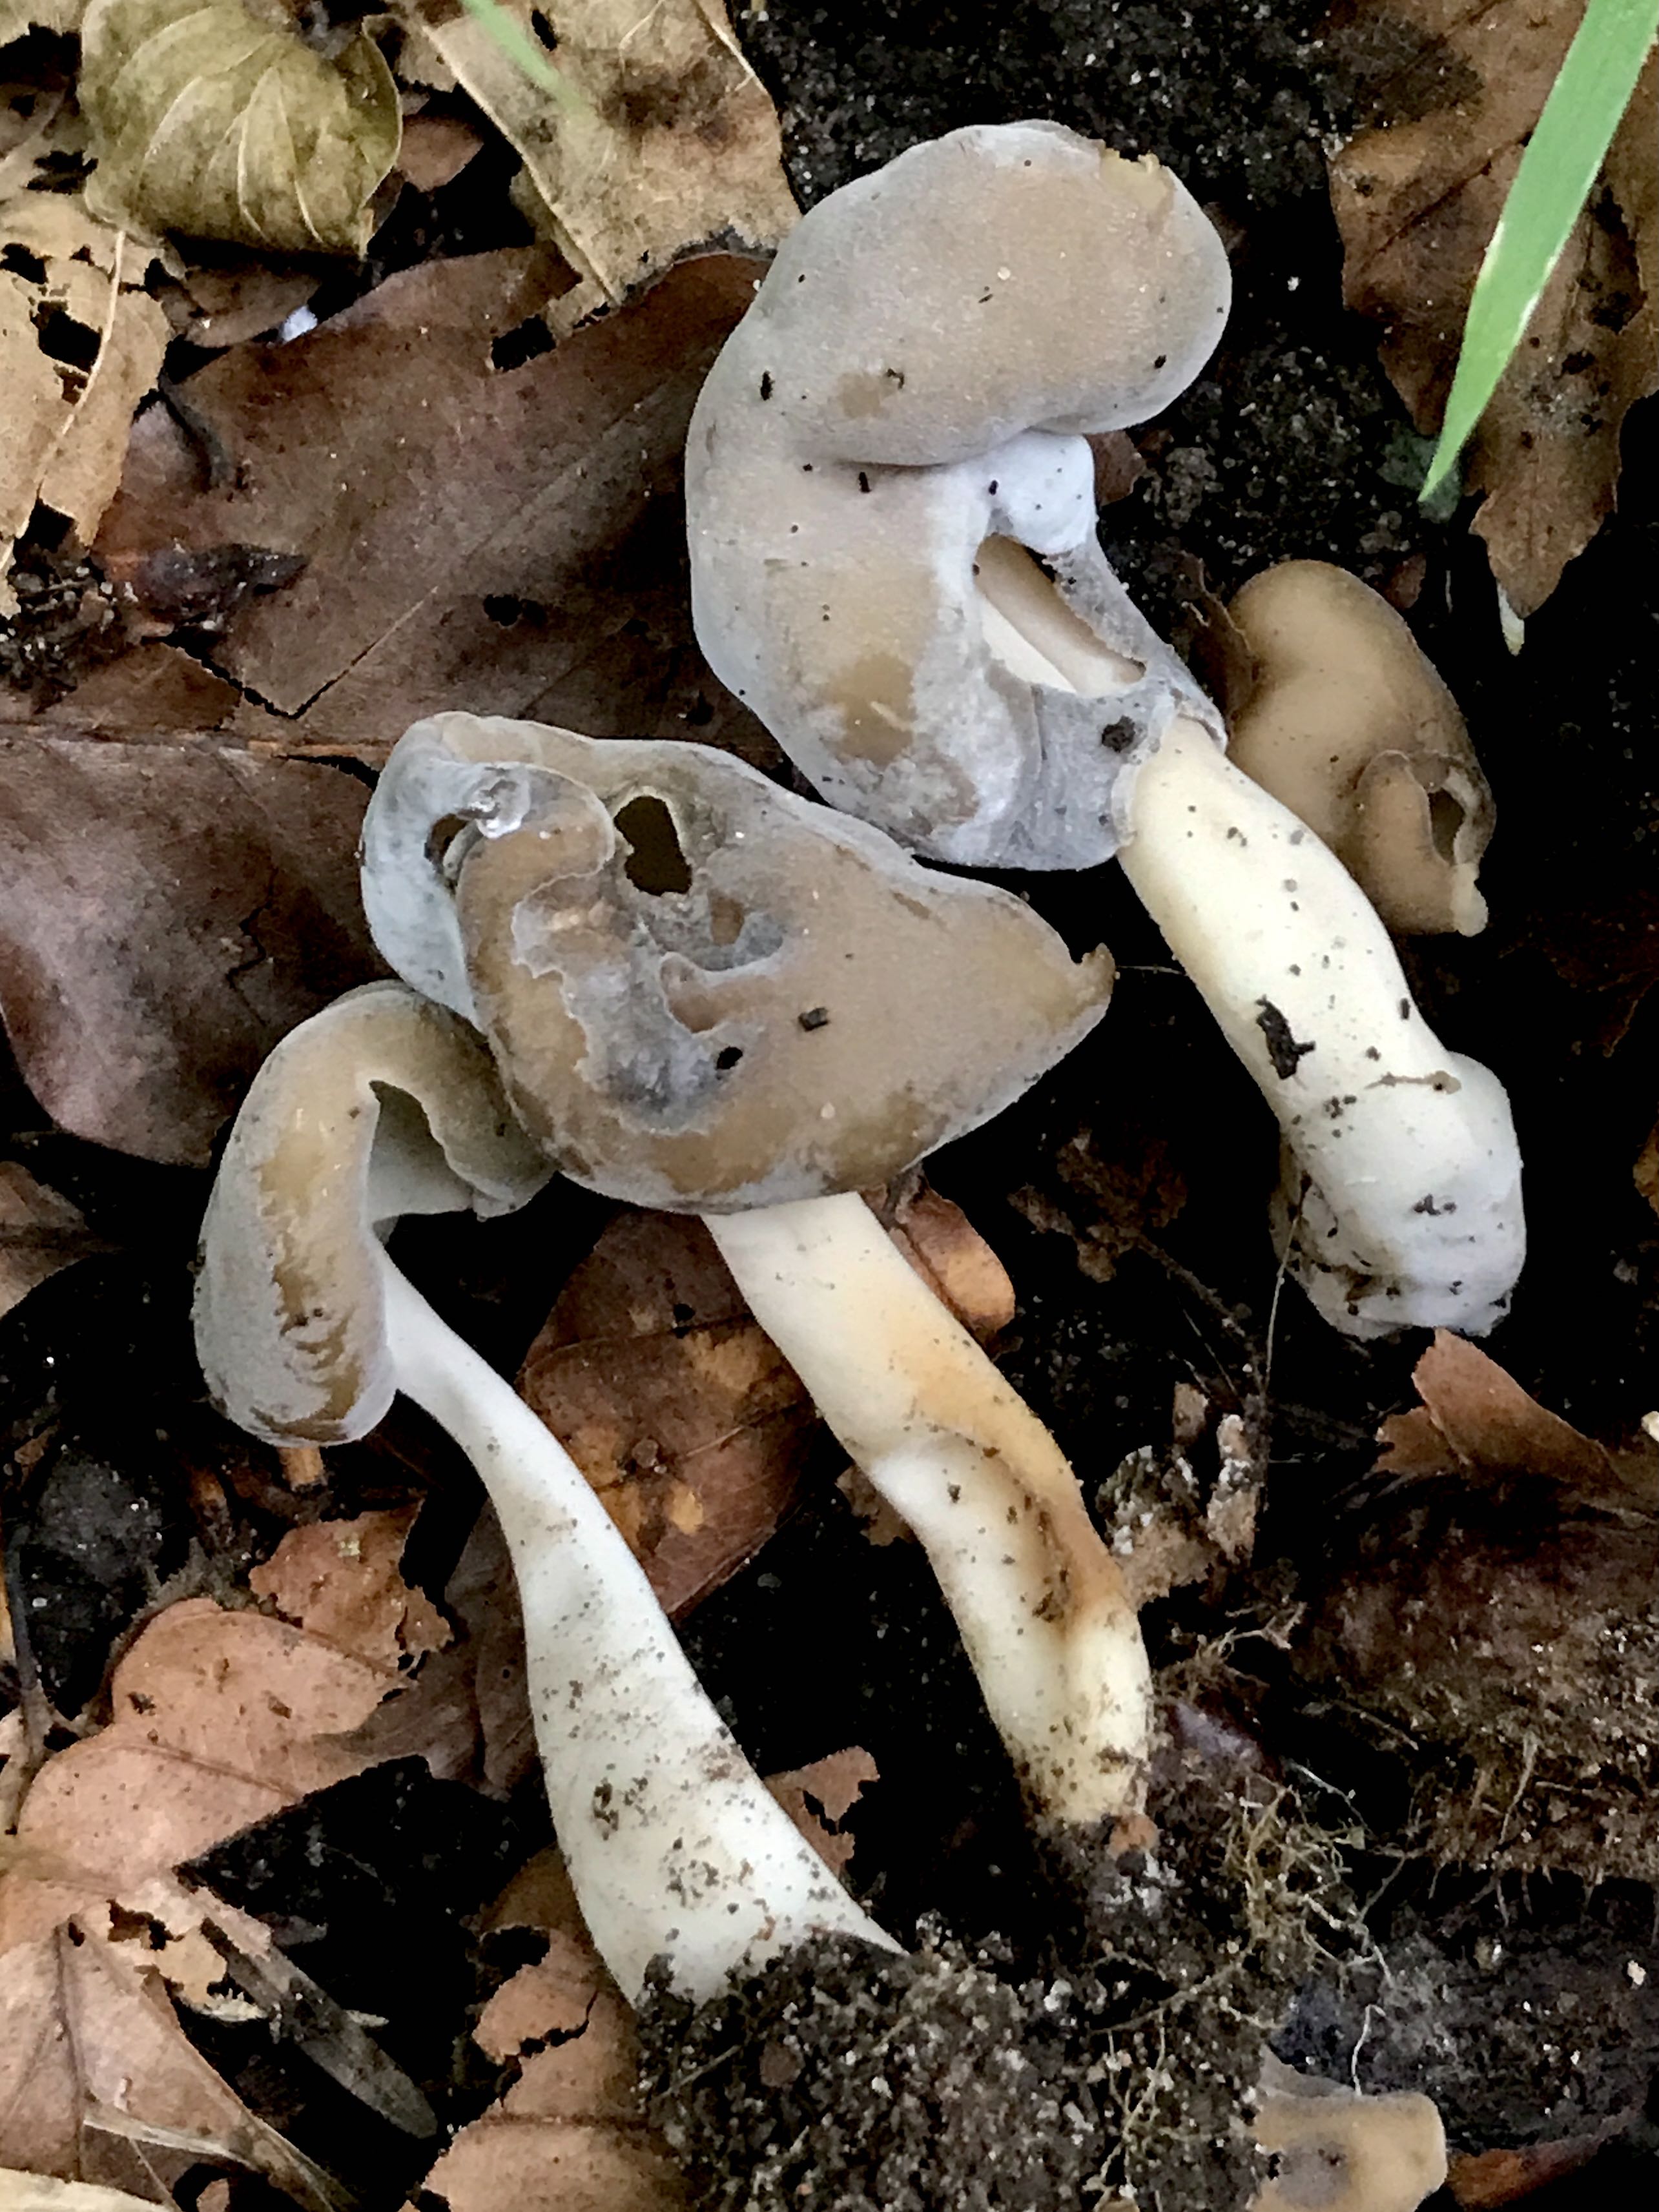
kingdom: Fungi
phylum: Ascomycota
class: Pezizomycetes
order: Pezizales
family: Helvellaceae
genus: Helvella
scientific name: Helvella elastica
